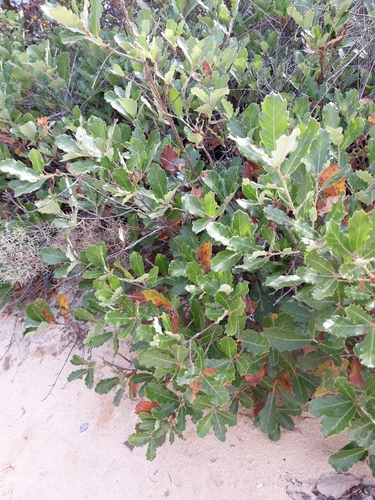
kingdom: Plantae
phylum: Tracheophyta
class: Magnoliopsida
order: Fagales
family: Fagaceae
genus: Quercus
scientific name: Quercus lusitanica
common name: Scrub gall oak
